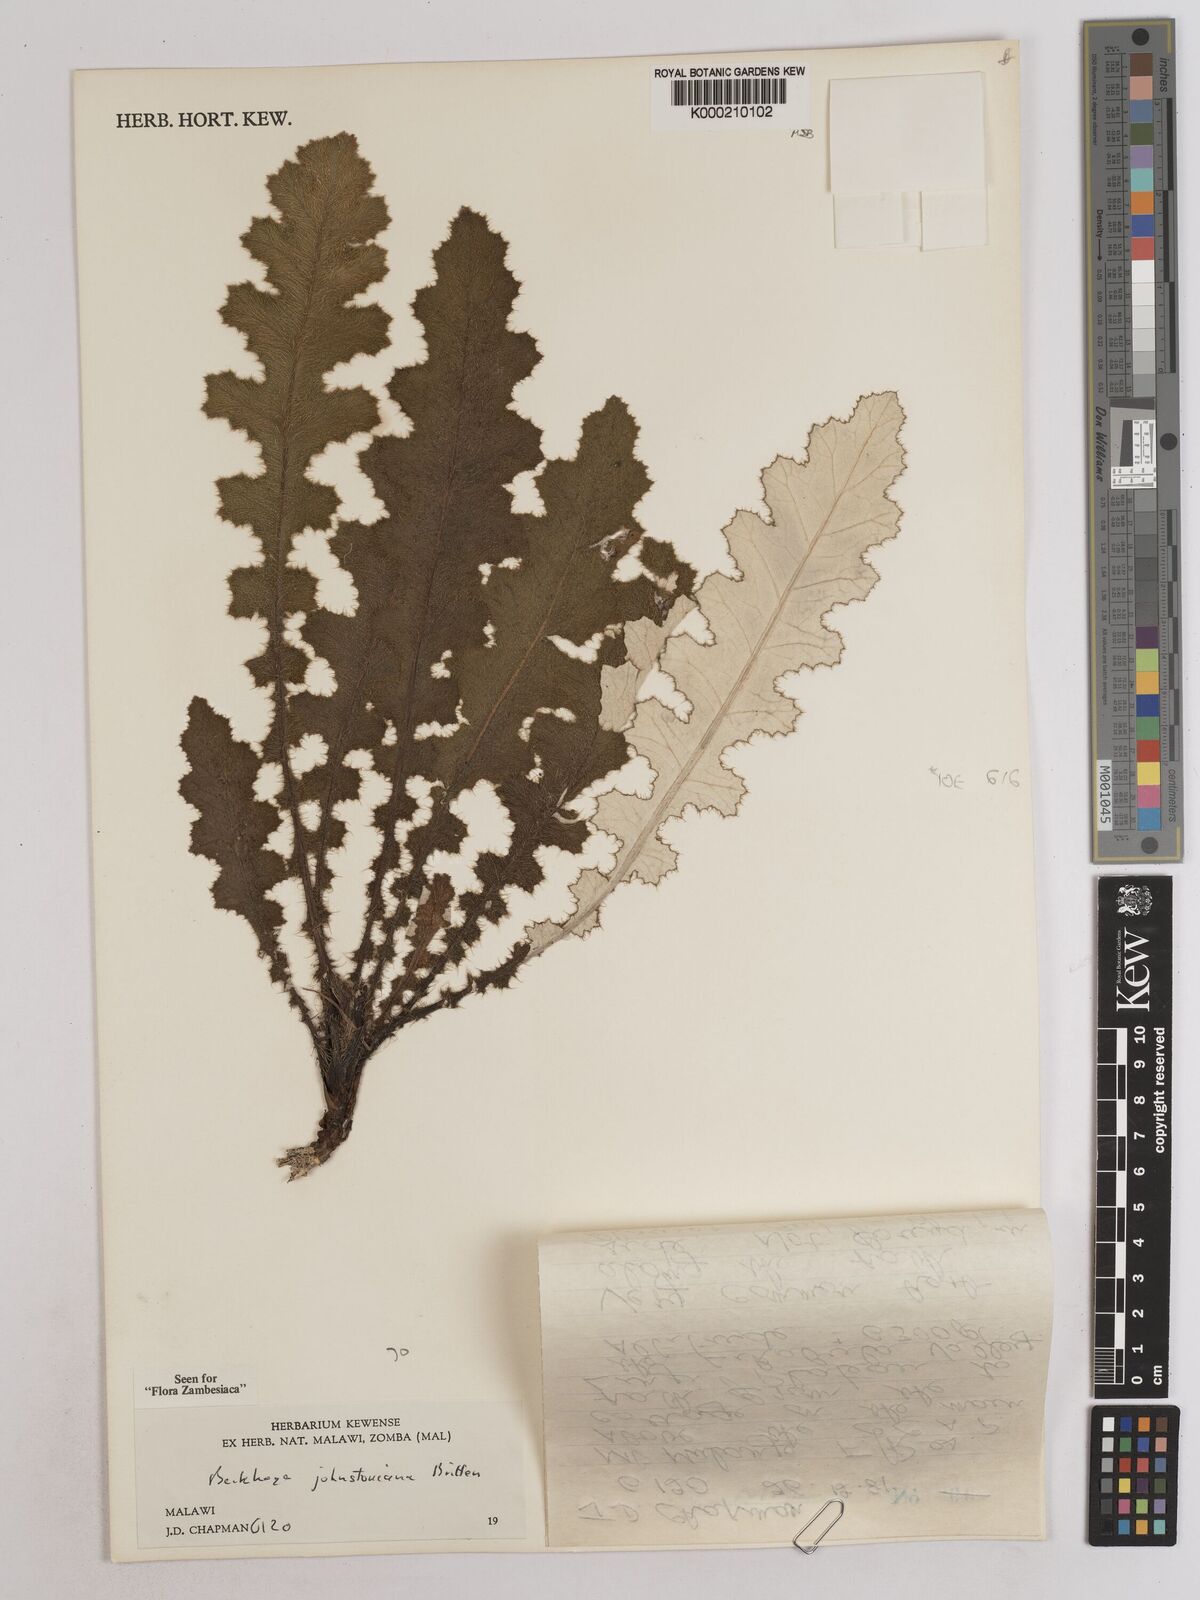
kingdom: Plantae
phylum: Tracheophyta
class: Magnoliopsida
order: Asterales
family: Asteraceae
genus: Berkheya
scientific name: Berkheya johnstoniana
